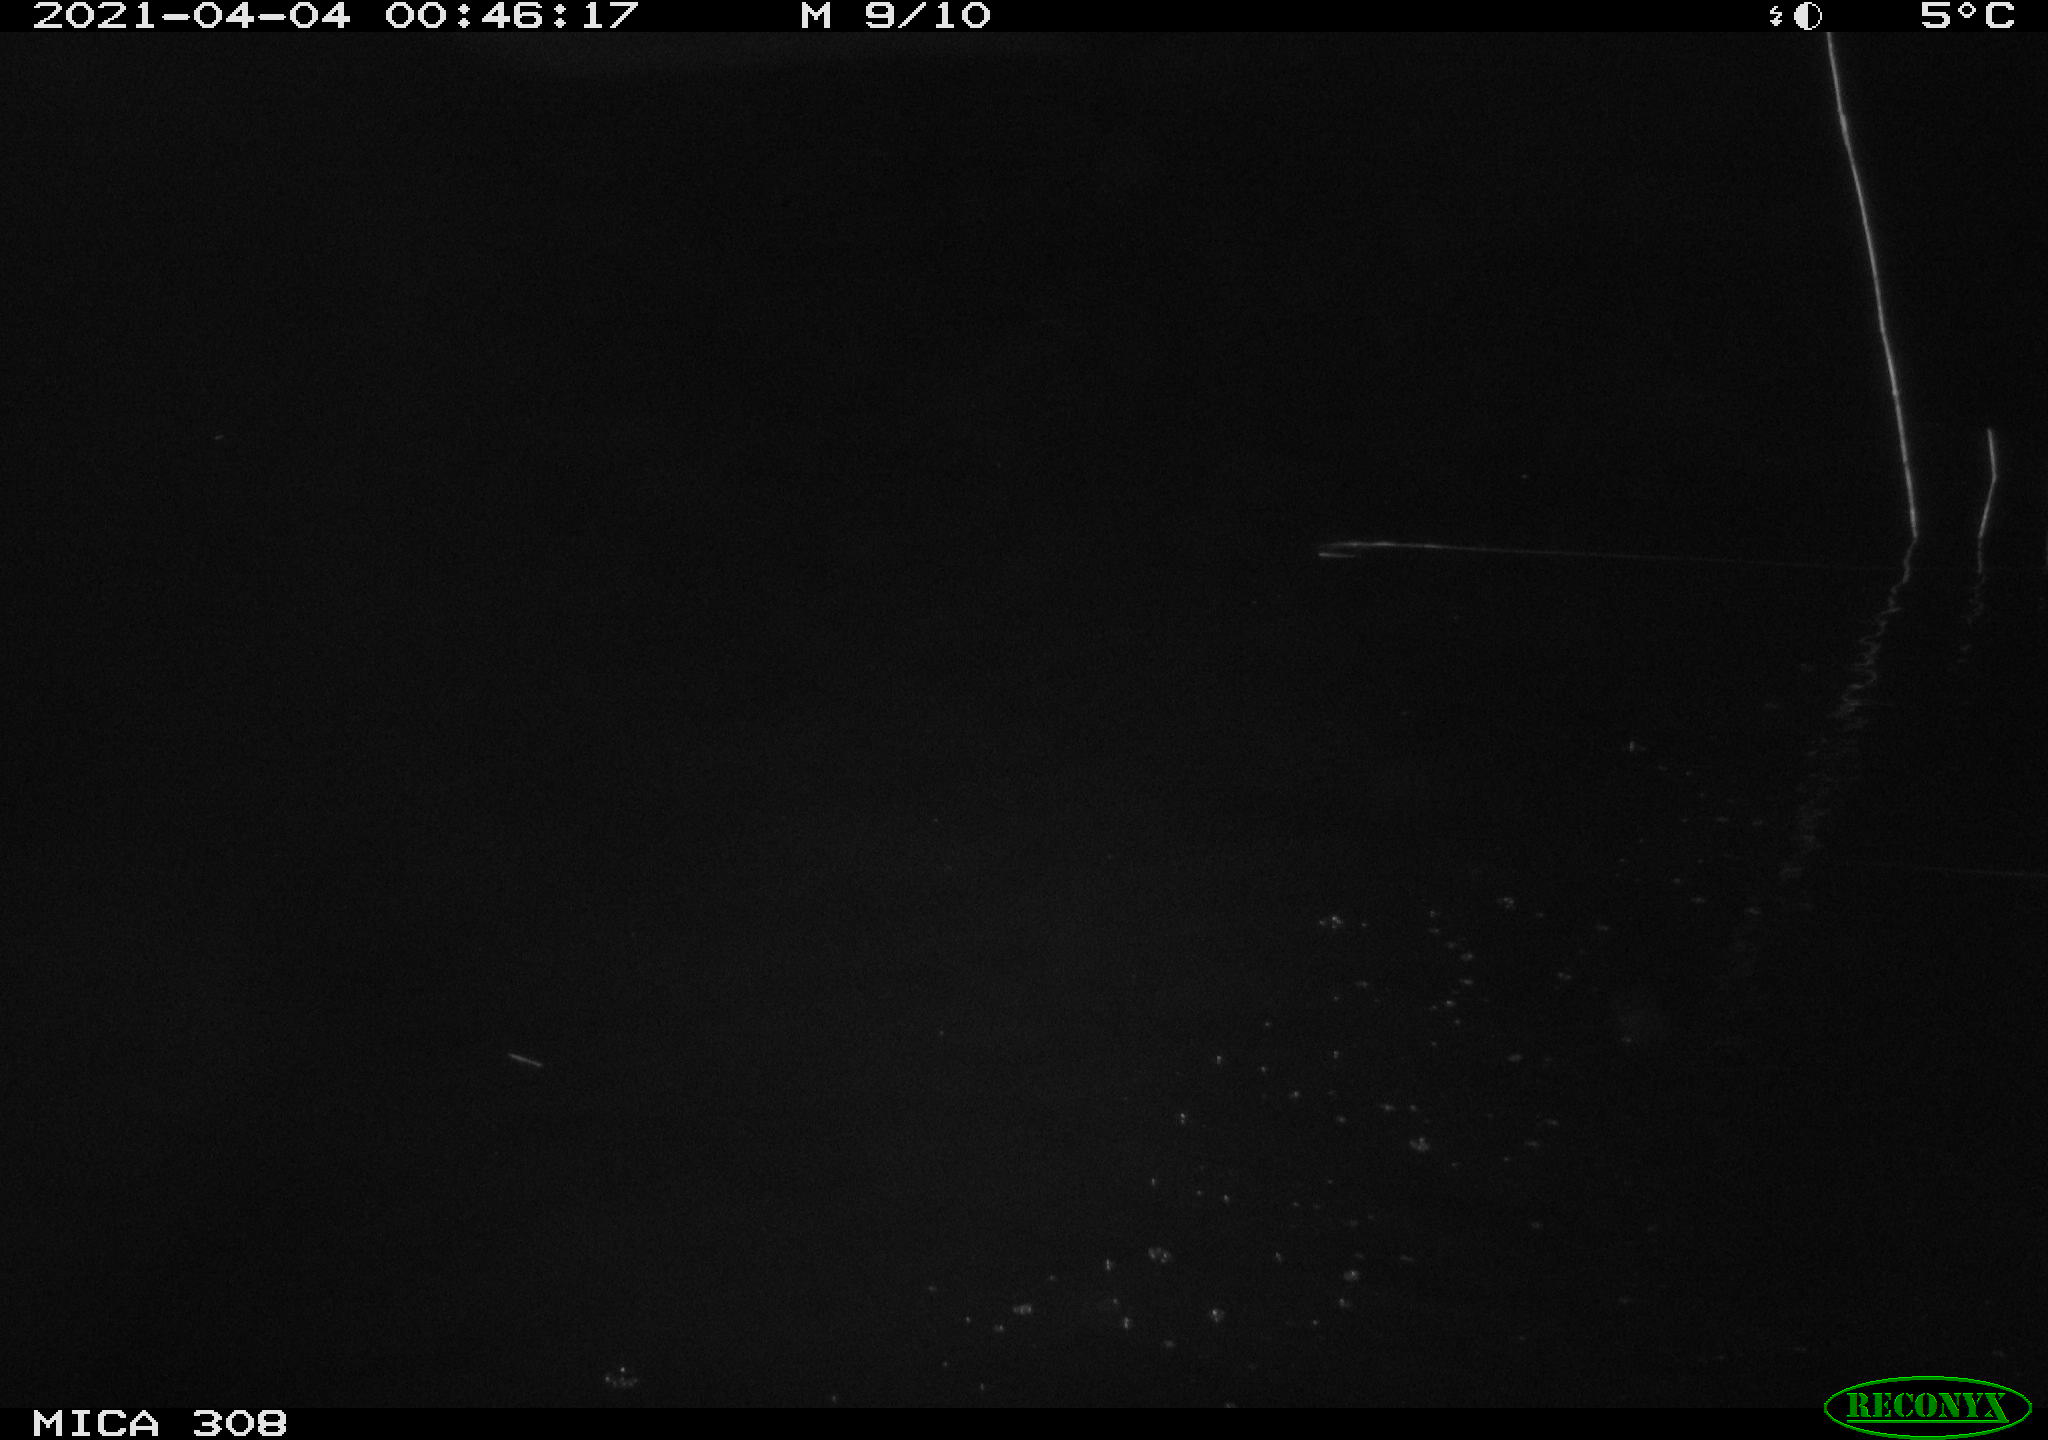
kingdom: Animalia
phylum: Chordata
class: Aves
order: Anseriformes
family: Anatidae
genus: Anas
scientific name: Anas platyrhynchos
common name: Mallard
